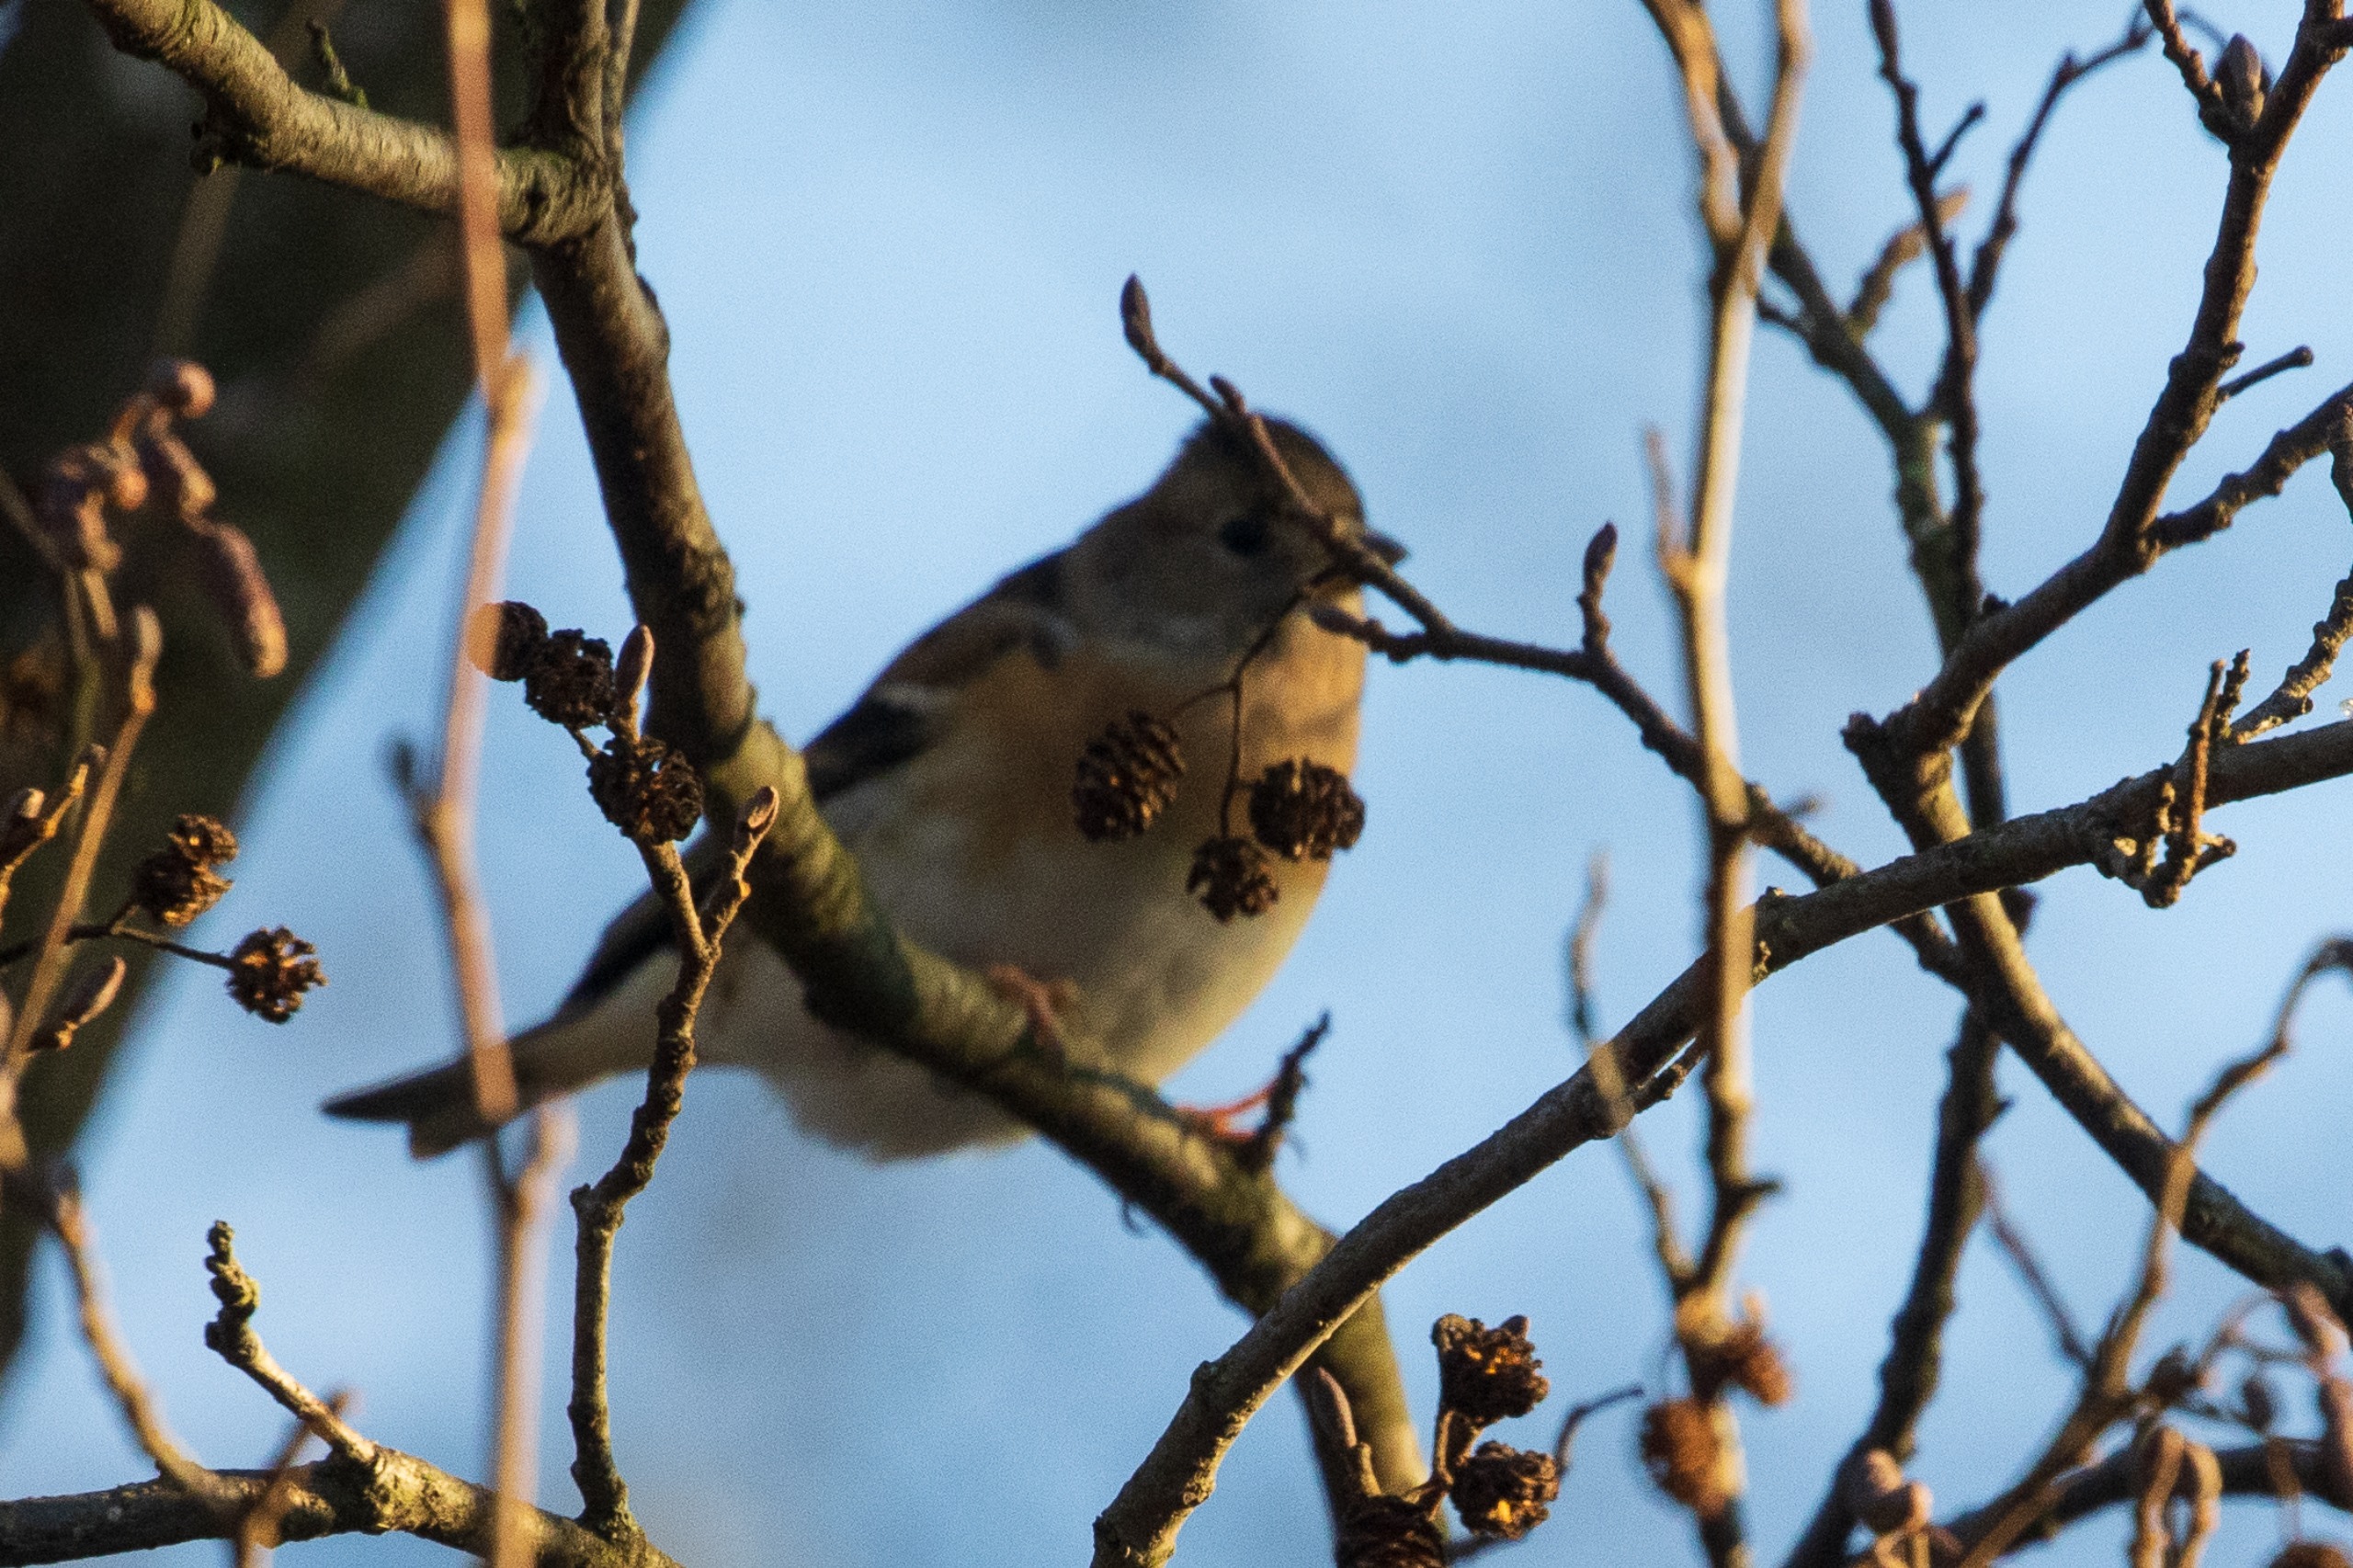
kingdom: Animalia
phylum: Chordata
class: Aves
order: Passeriformes
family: Fringillidae
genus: Fringilla
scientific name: Fringilla montifringilla
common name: Kvækerfinke
